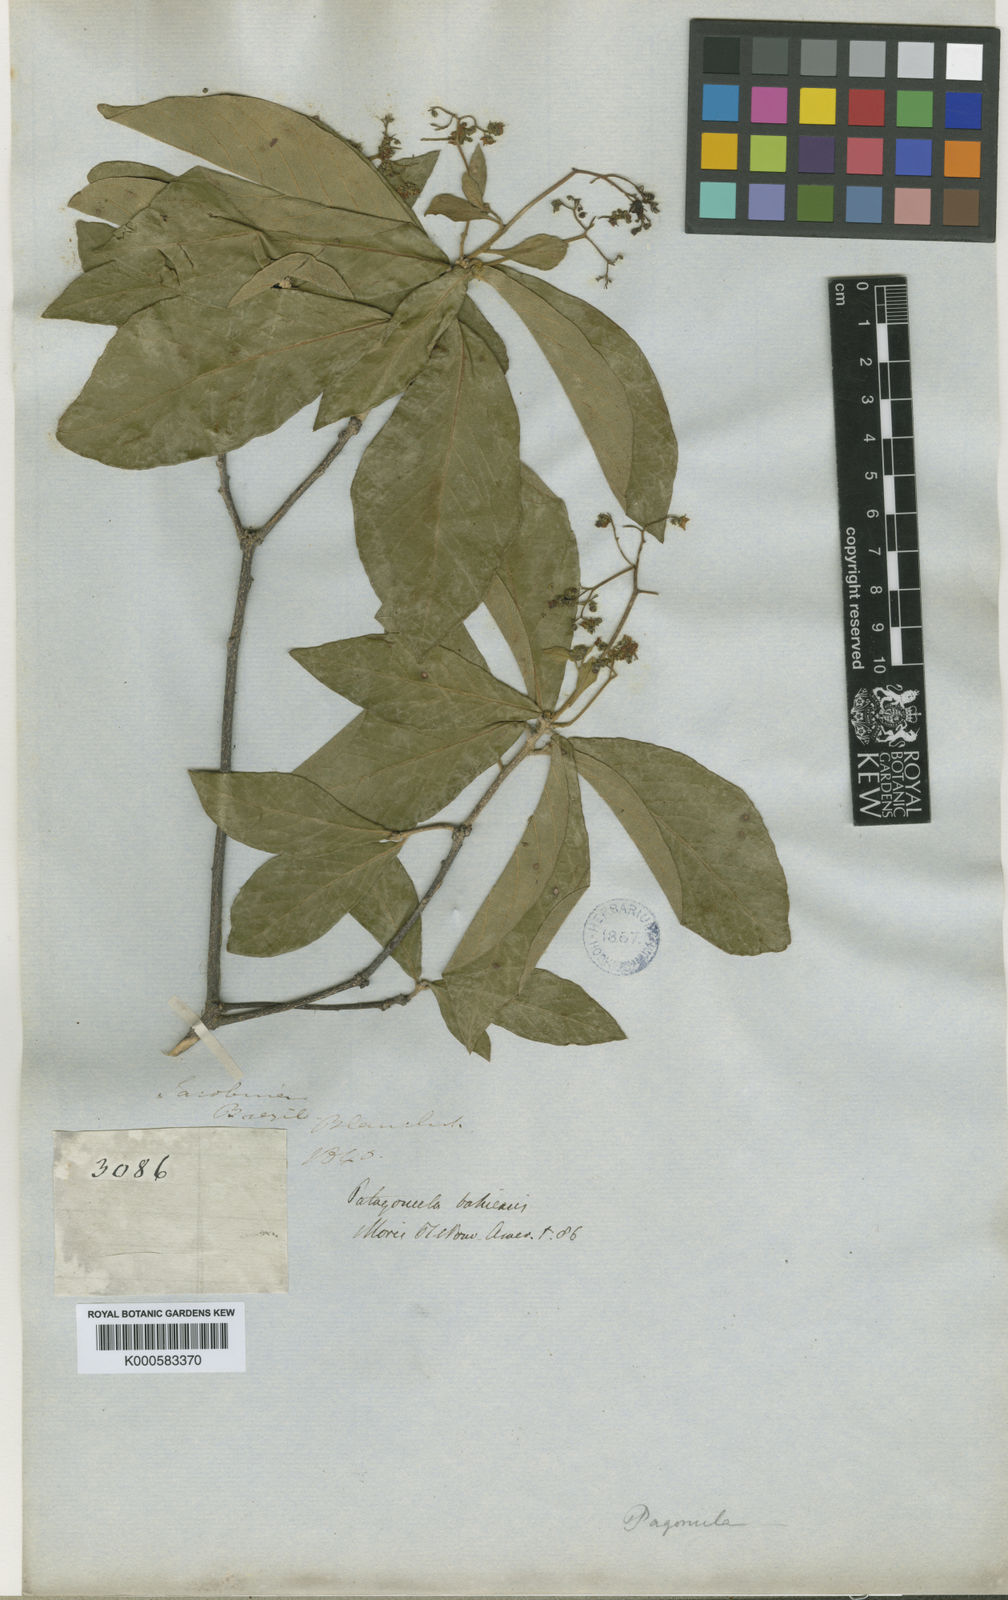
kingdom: Plantae
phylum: Tracheophyta
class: Magnoliopsida
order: Boraginales
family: Cordiaceae
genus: Cordia
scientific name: Cordia incognita
